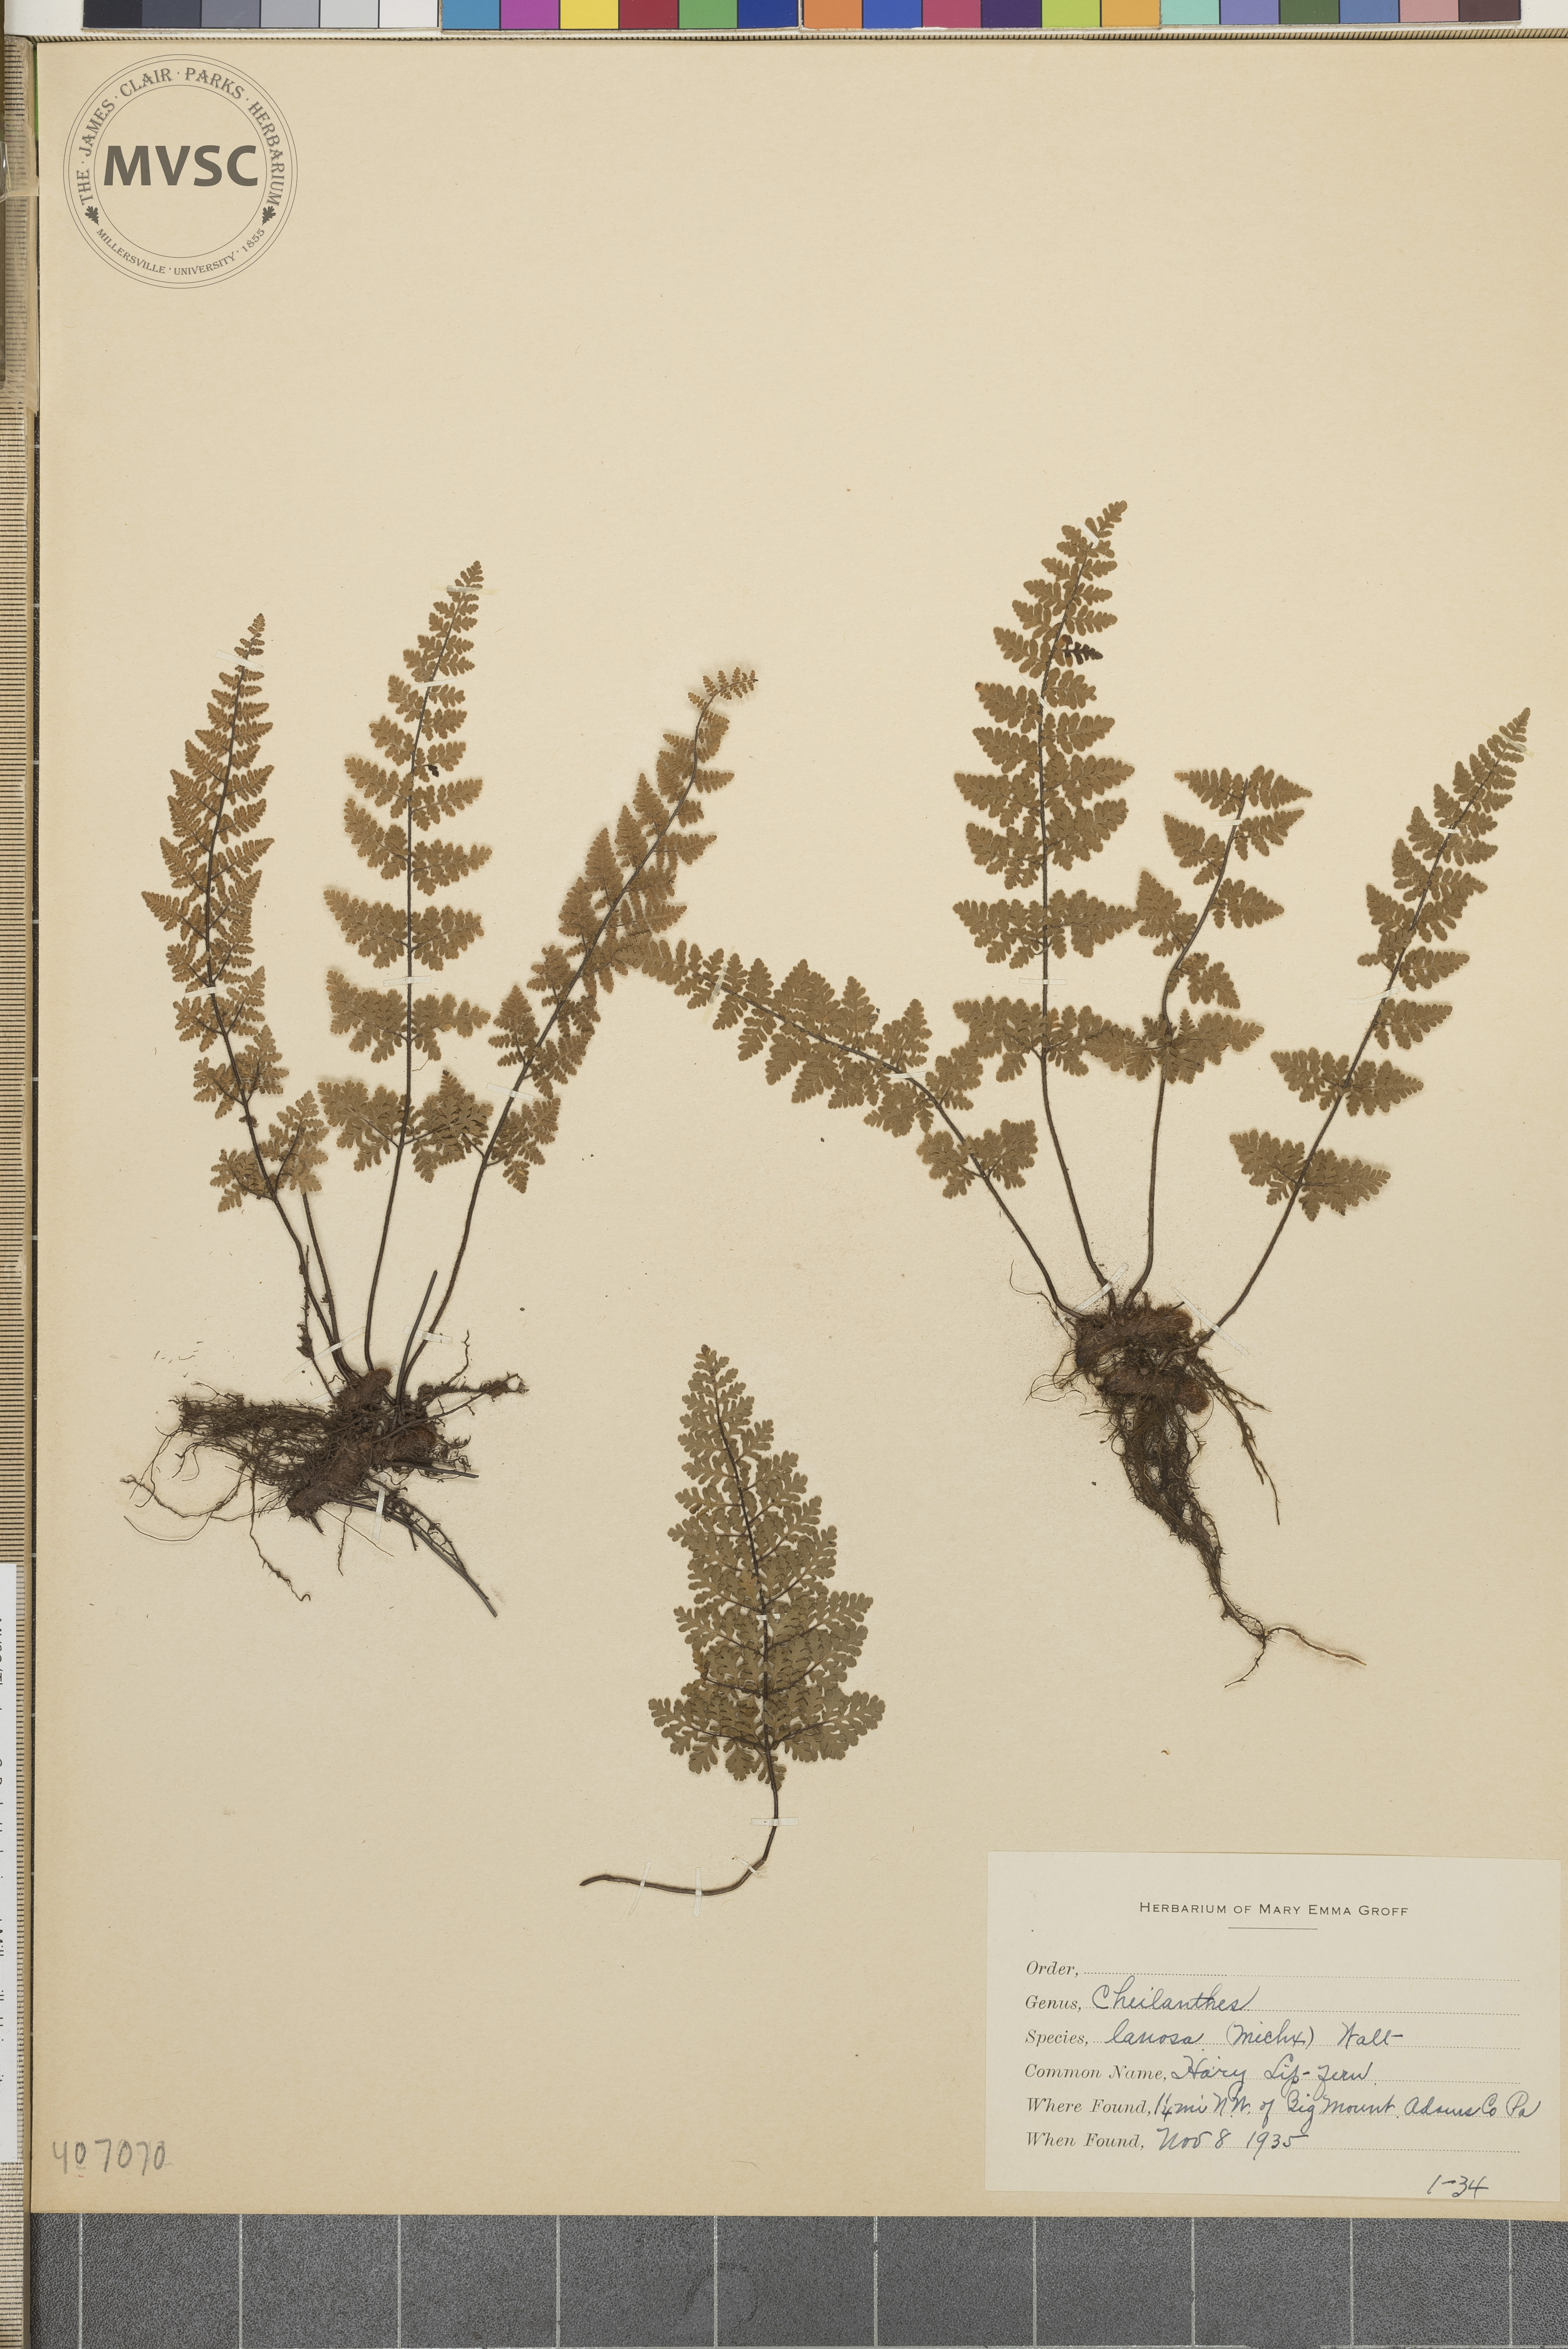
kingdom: Plantae
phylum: Tracheophyta
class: Polypodiopsida
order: Polypodiales
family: Pteridaceae
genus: Myriopteris
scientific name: Myriopteris
